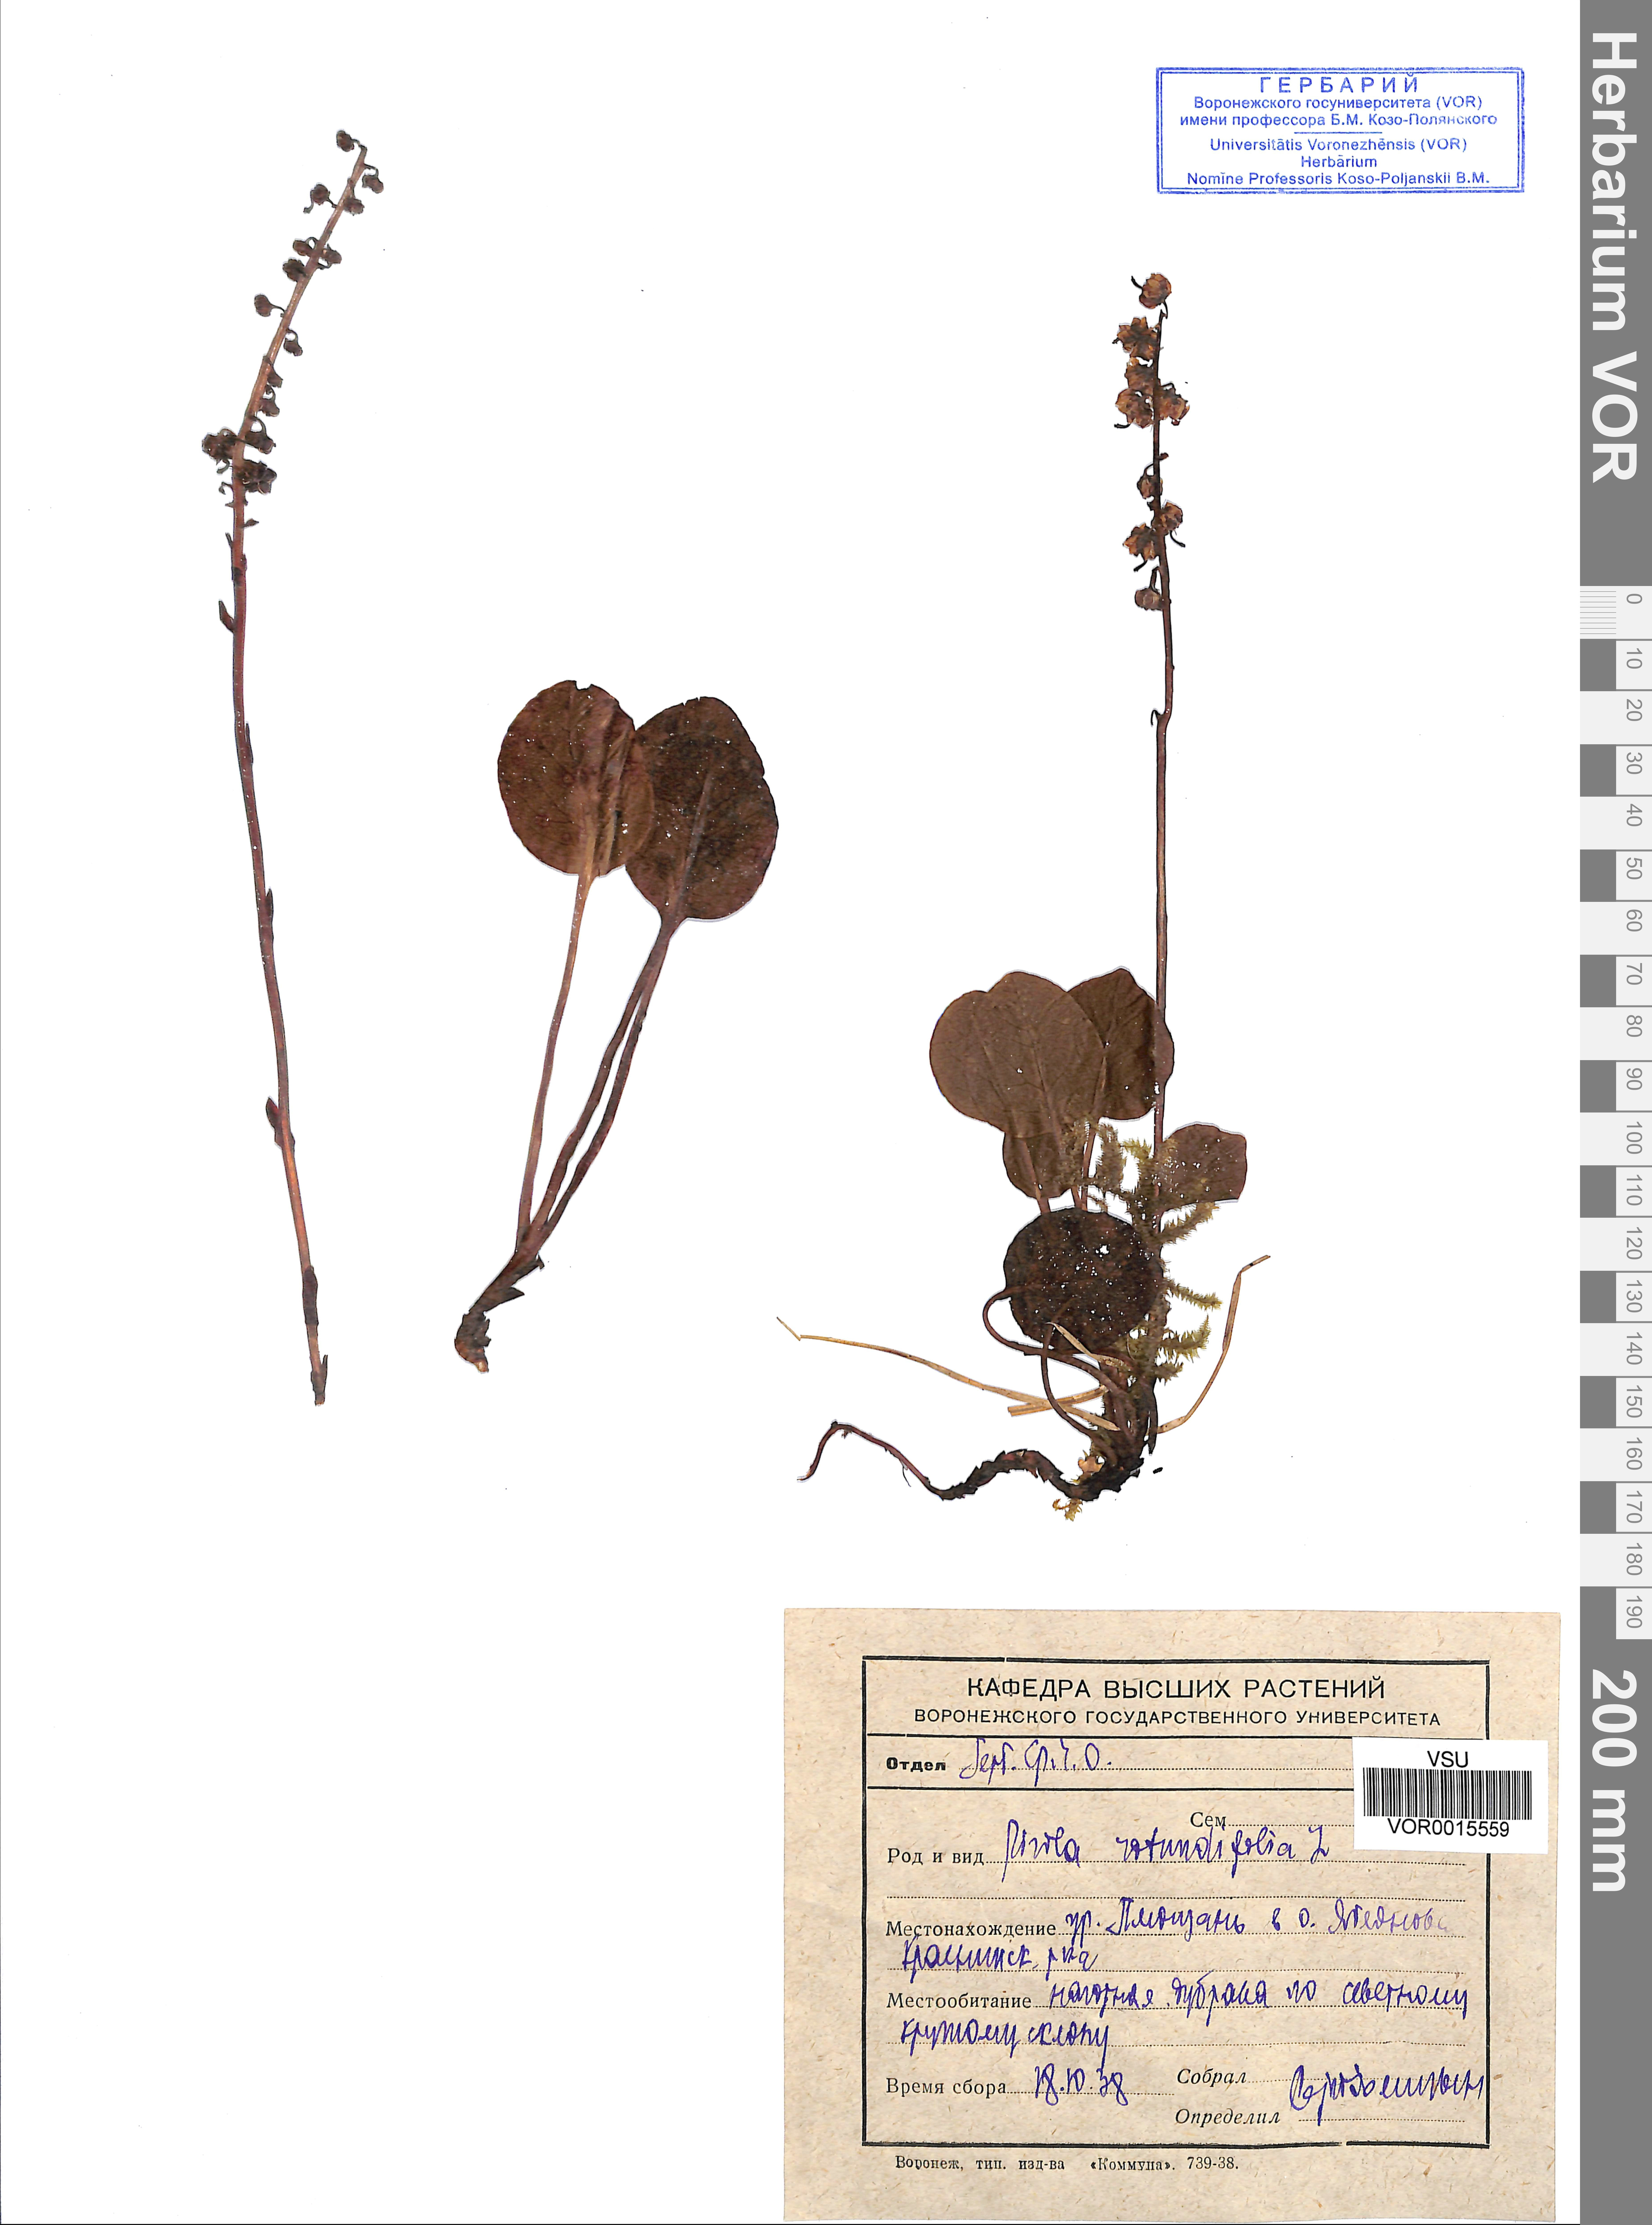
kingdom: Plantae
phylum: Tracheophyta
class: Magnoliopsida
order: Ericales
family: Ericaceae
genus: Pyrola
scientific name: Pyrola rotundifolia
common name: Round-leaved wintergreen
